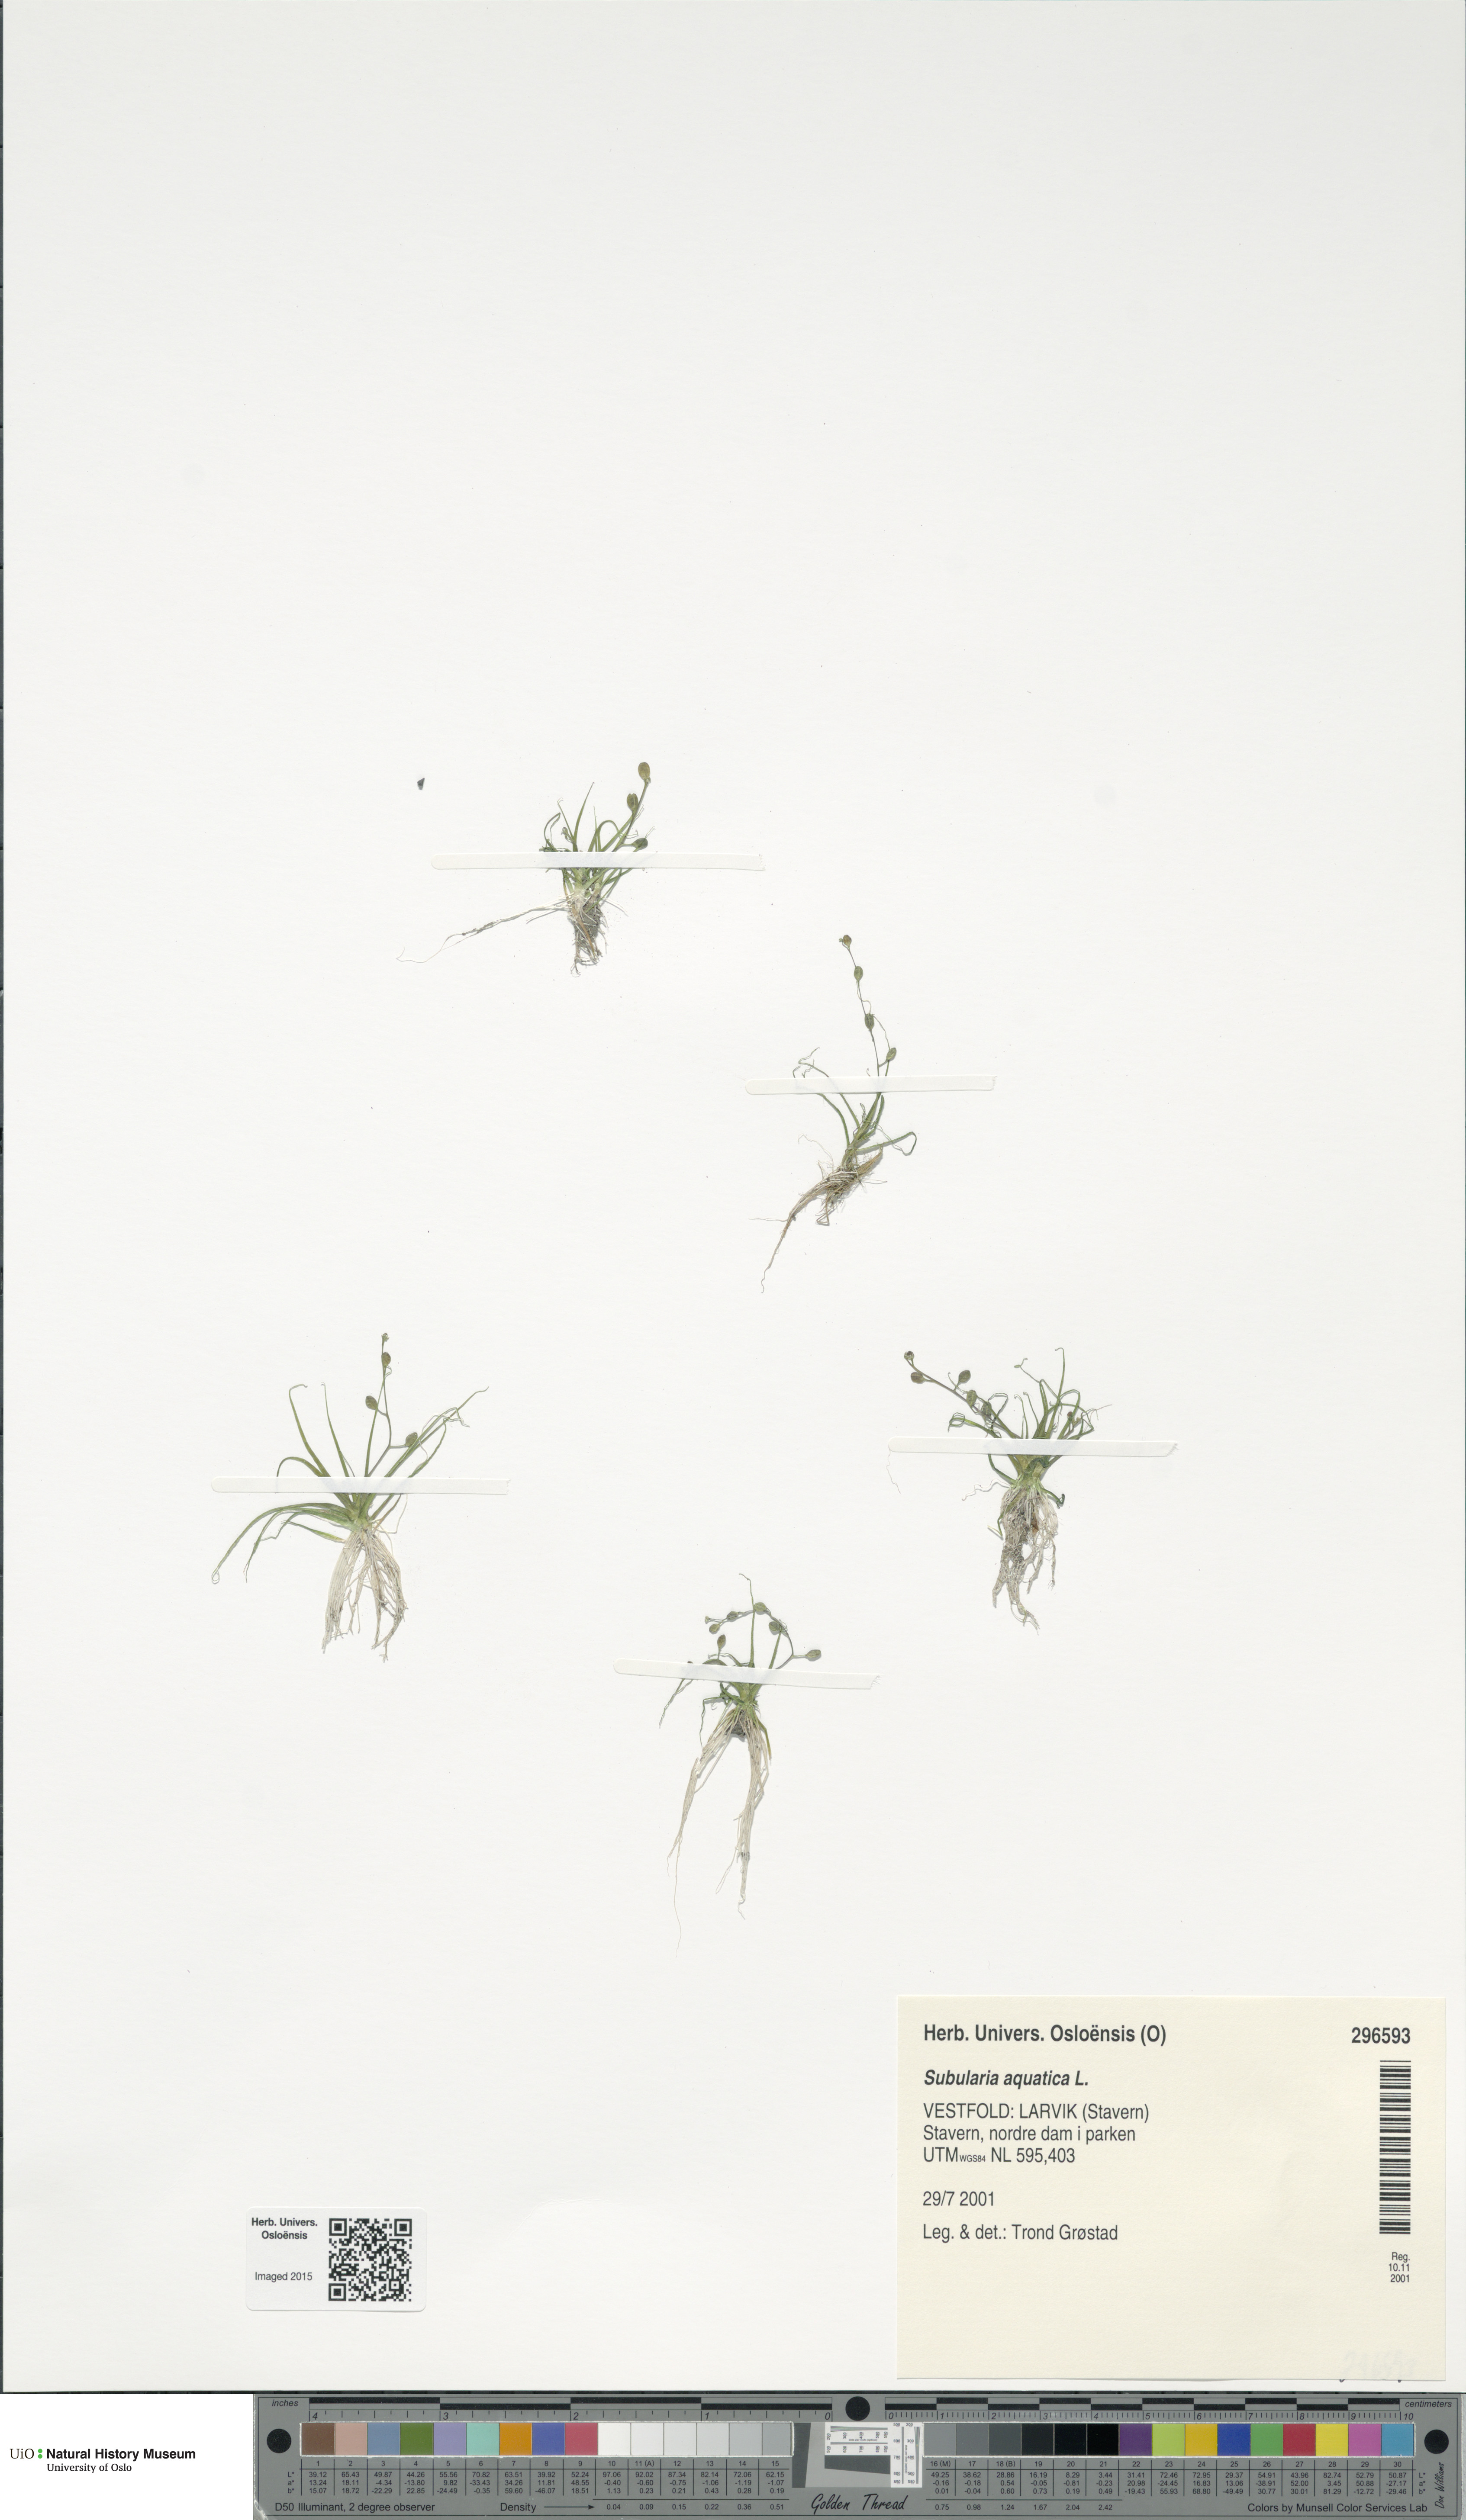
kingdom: Plantae
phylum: Tracheophyta
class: Magnoliopsida
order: Brassicales
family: Brassicaceae
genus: Subularia
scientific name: Subularia aquatica
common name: Awlwort
